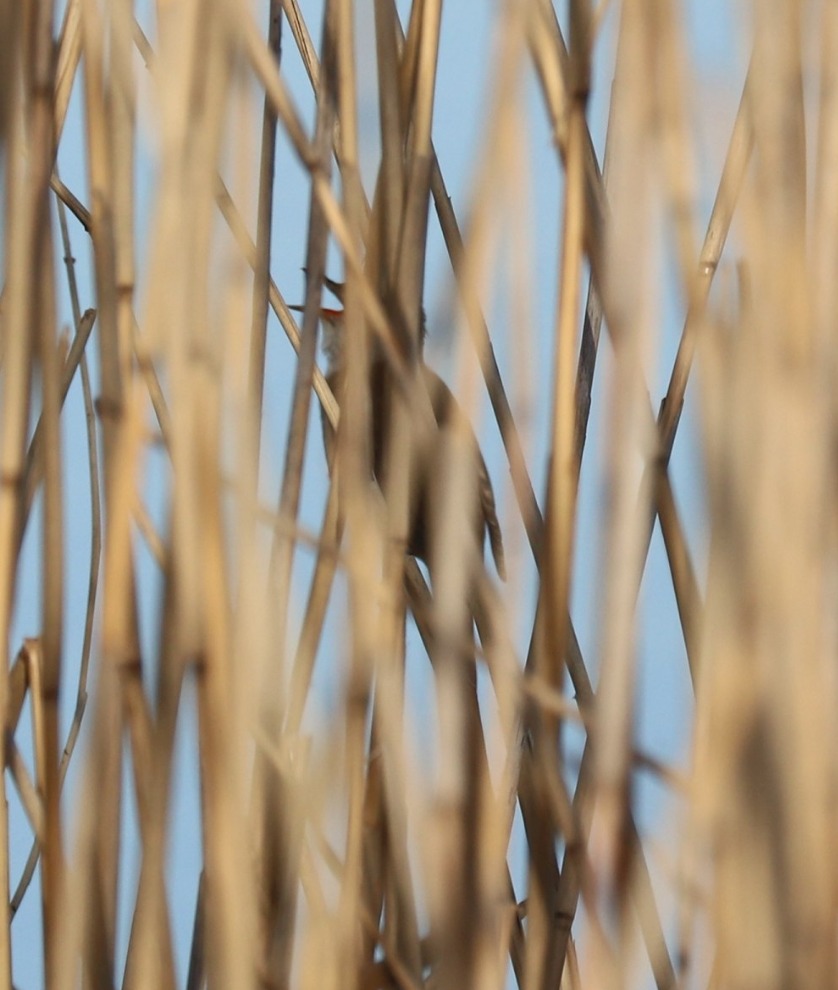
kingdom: Animalia
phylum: Chordata
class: Aves
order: Passeriformes
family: Acrocephalidae
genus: Acrocephalus
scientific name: Acrocephalus arundinaceus
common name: Drosselrørsanger
